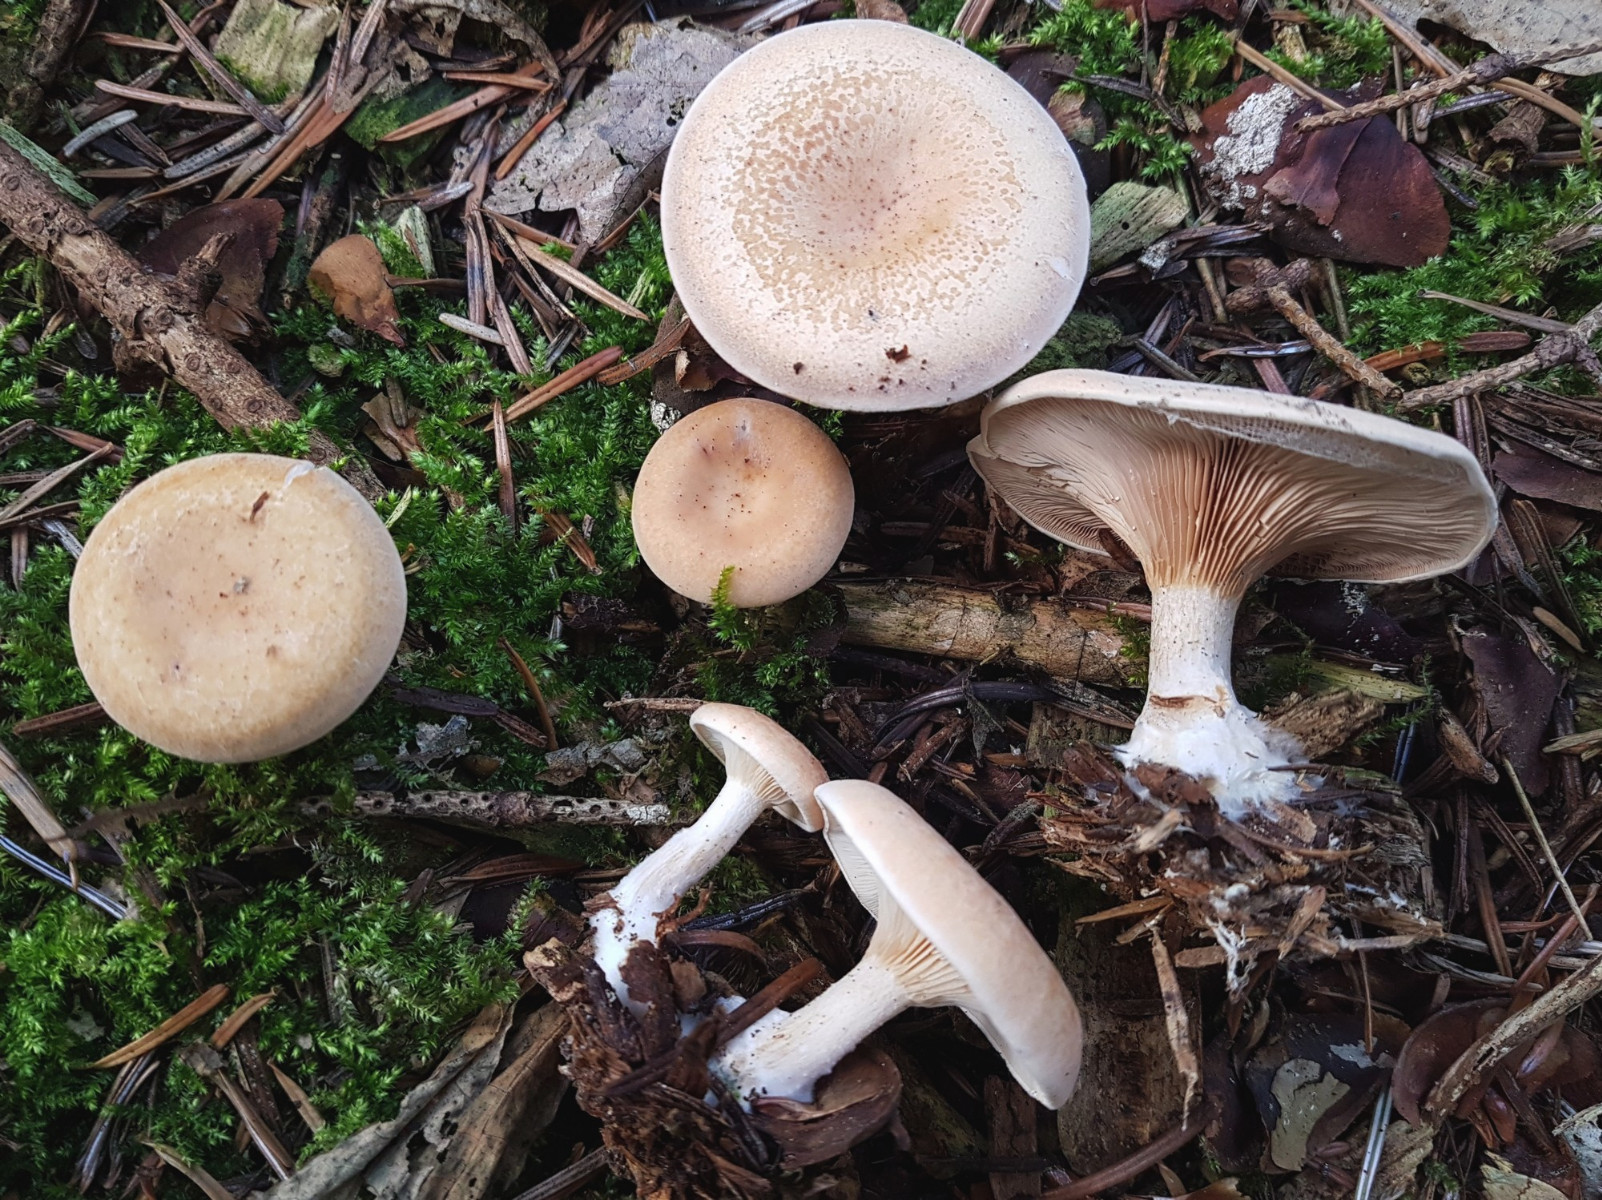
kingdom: Fungi
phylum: Basidiomycota
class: Agaricomycetes
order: Agaricales
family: Tricholomataceae
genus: Paralepista
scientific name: Paralepista gilva
